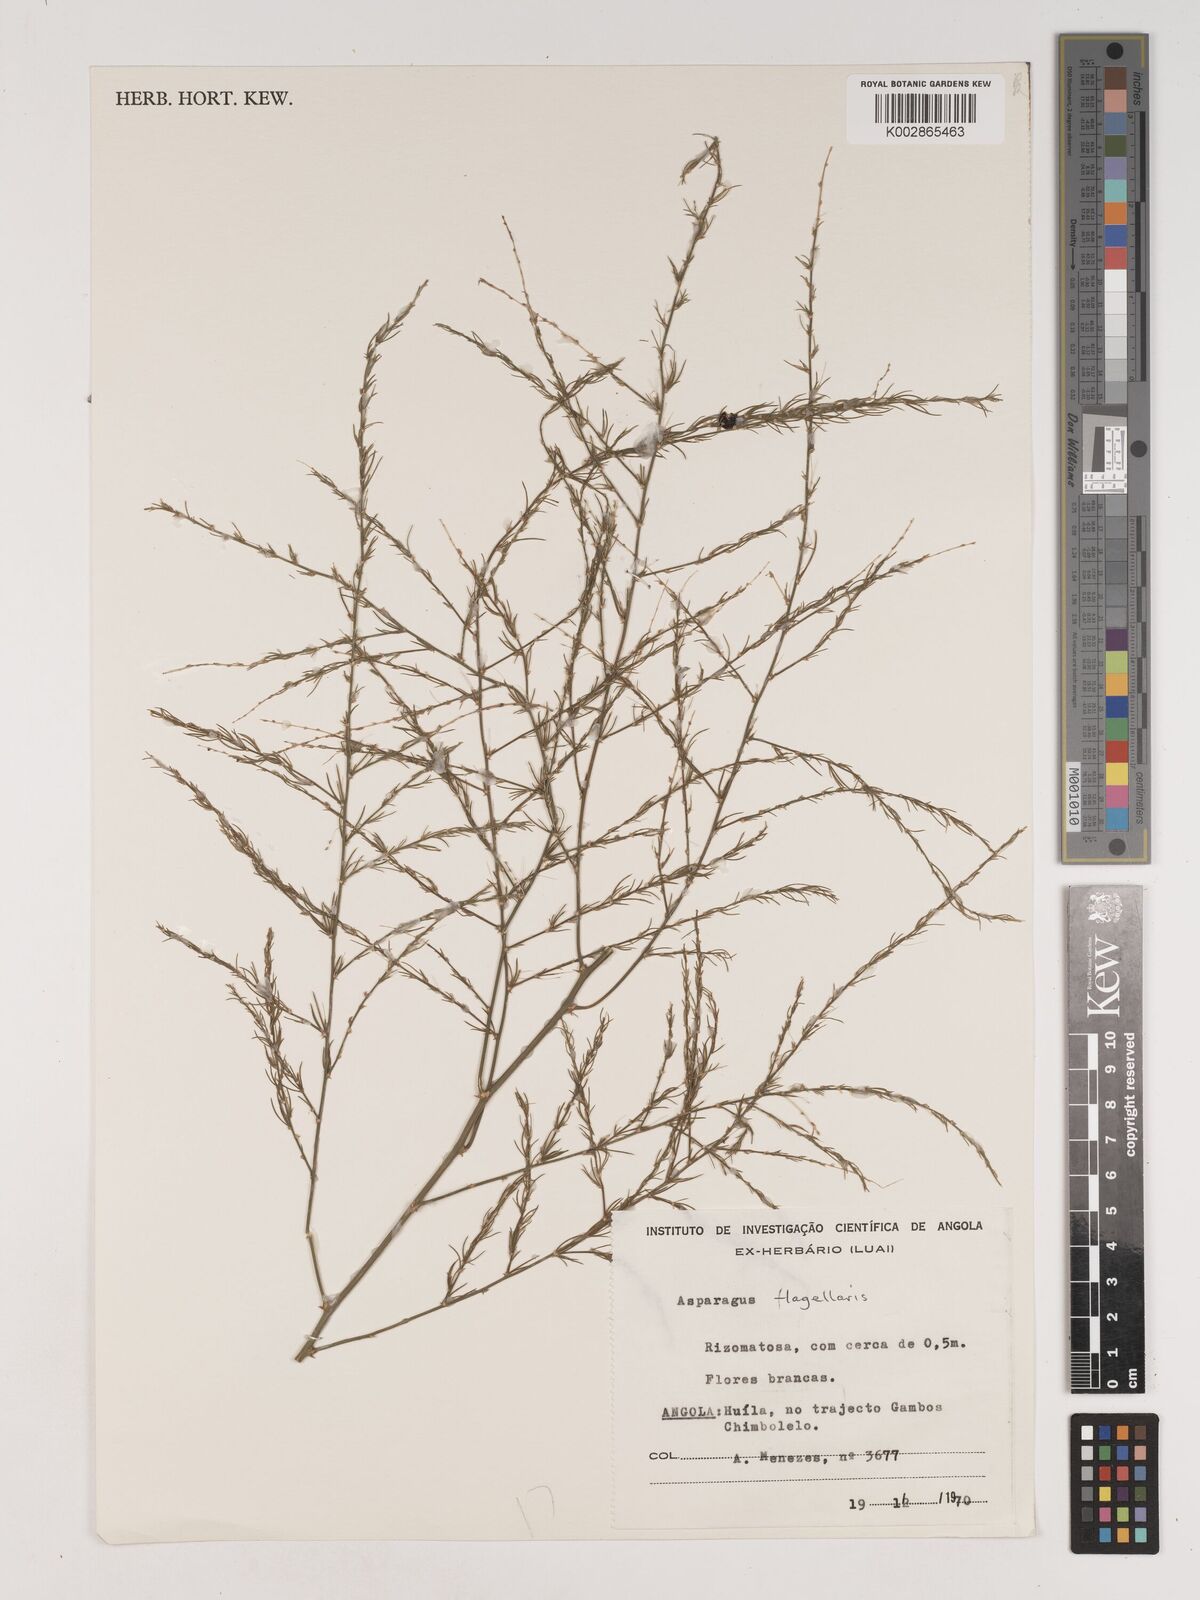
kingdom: Plantae
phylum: Tracheophyta
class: Liliopsida
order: Asparagales
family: Asparagaceae
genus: Asparagus
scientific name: Asparagus flagellaris
